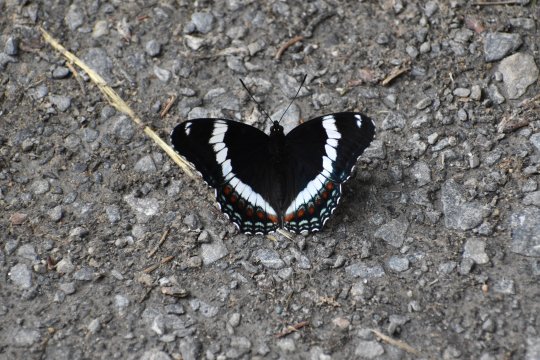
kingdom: Animalia
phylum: Arthropoda
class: Insecta
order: Lepidoptera
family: Nymphalidae
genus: Limenitis
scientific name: Limenitis
